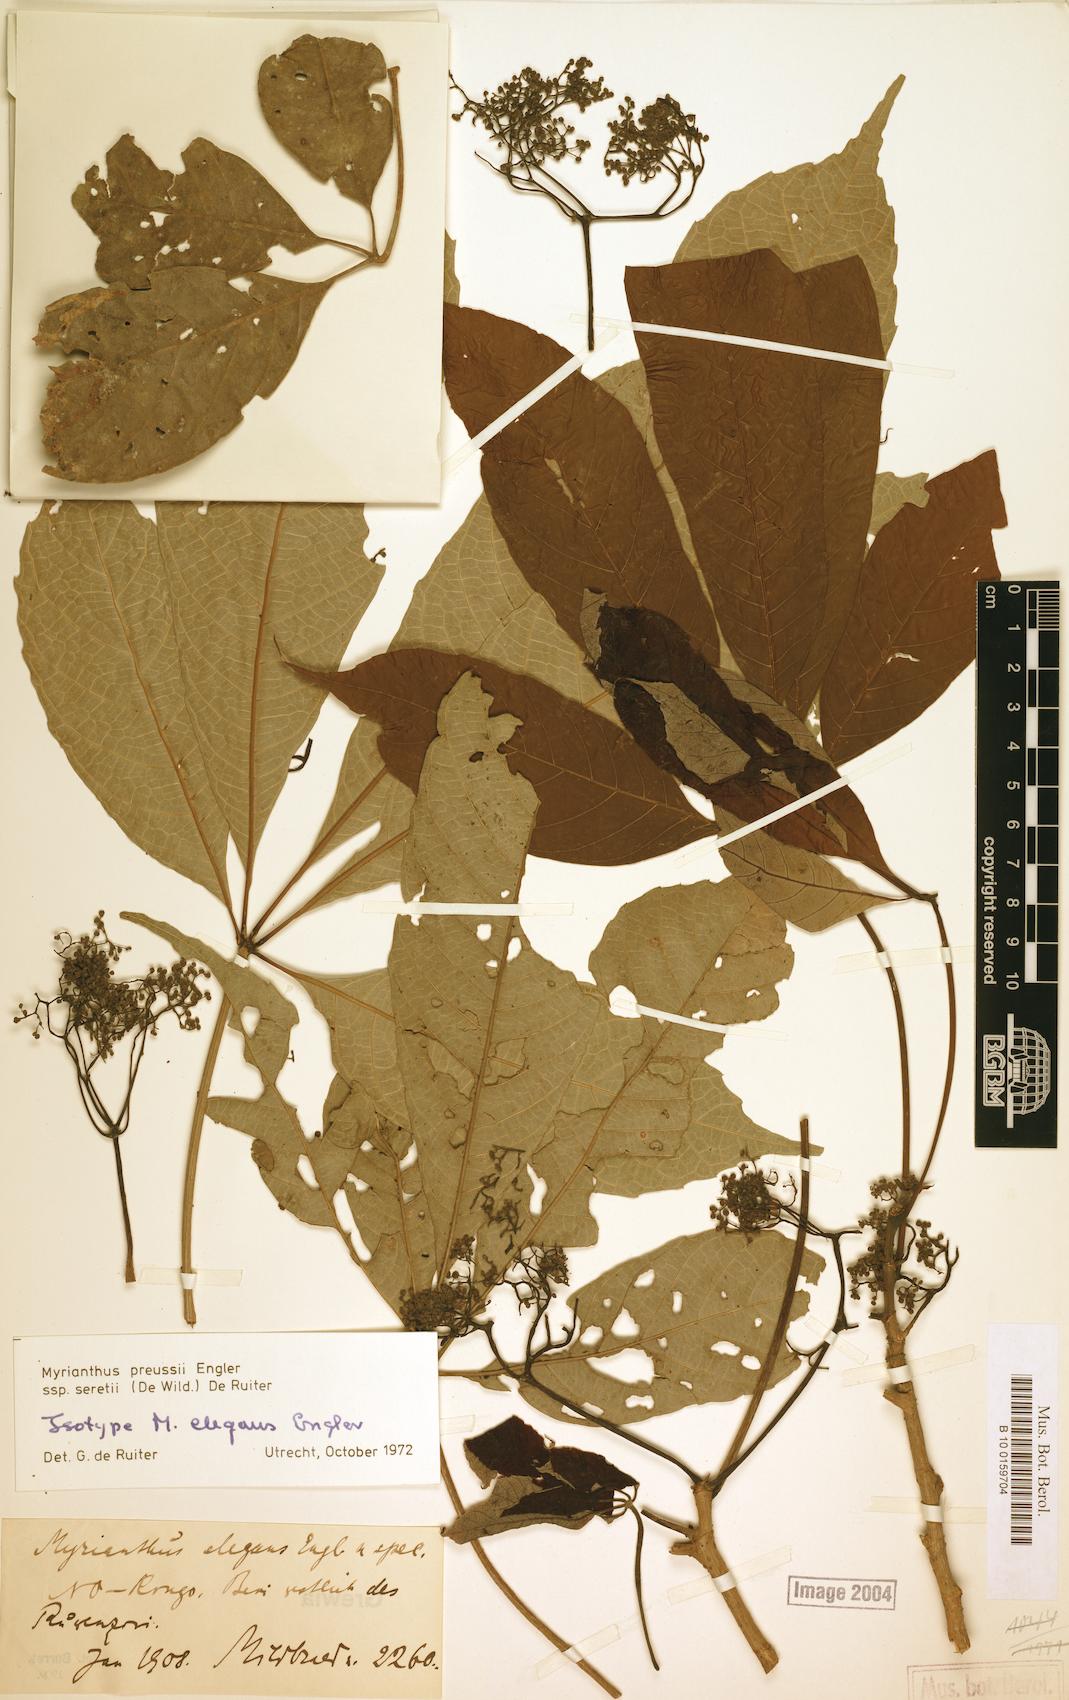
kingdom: Plantae
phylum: Tracheophyta
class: Magnoliopsida
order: Rosales
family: Urticaceae
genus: Myrianthus
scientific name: Myrianthus preussii
